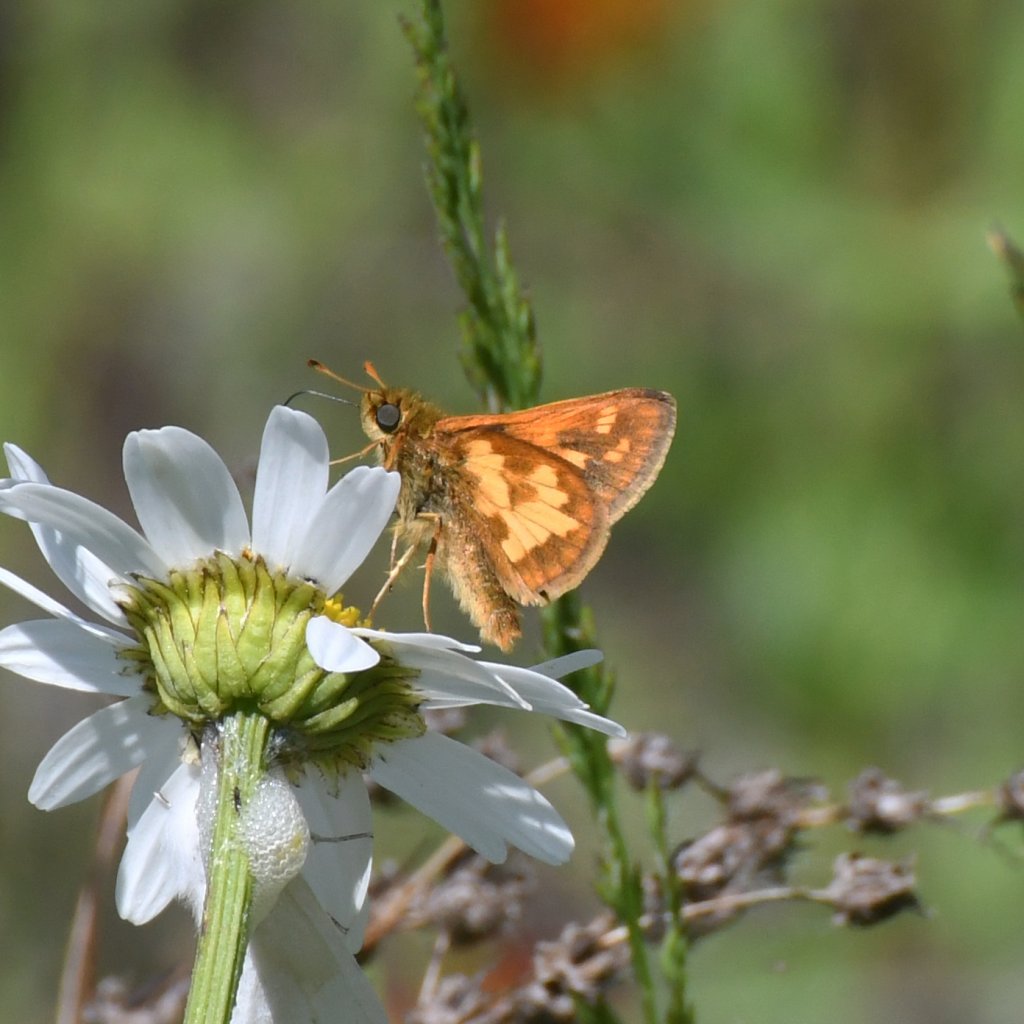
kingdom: Animalia
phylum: Arthropoda
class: Insecta
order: Lepidoptera
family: Hesperiidae
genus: Polites
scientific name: Polites coras
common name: Peck's Skipper
